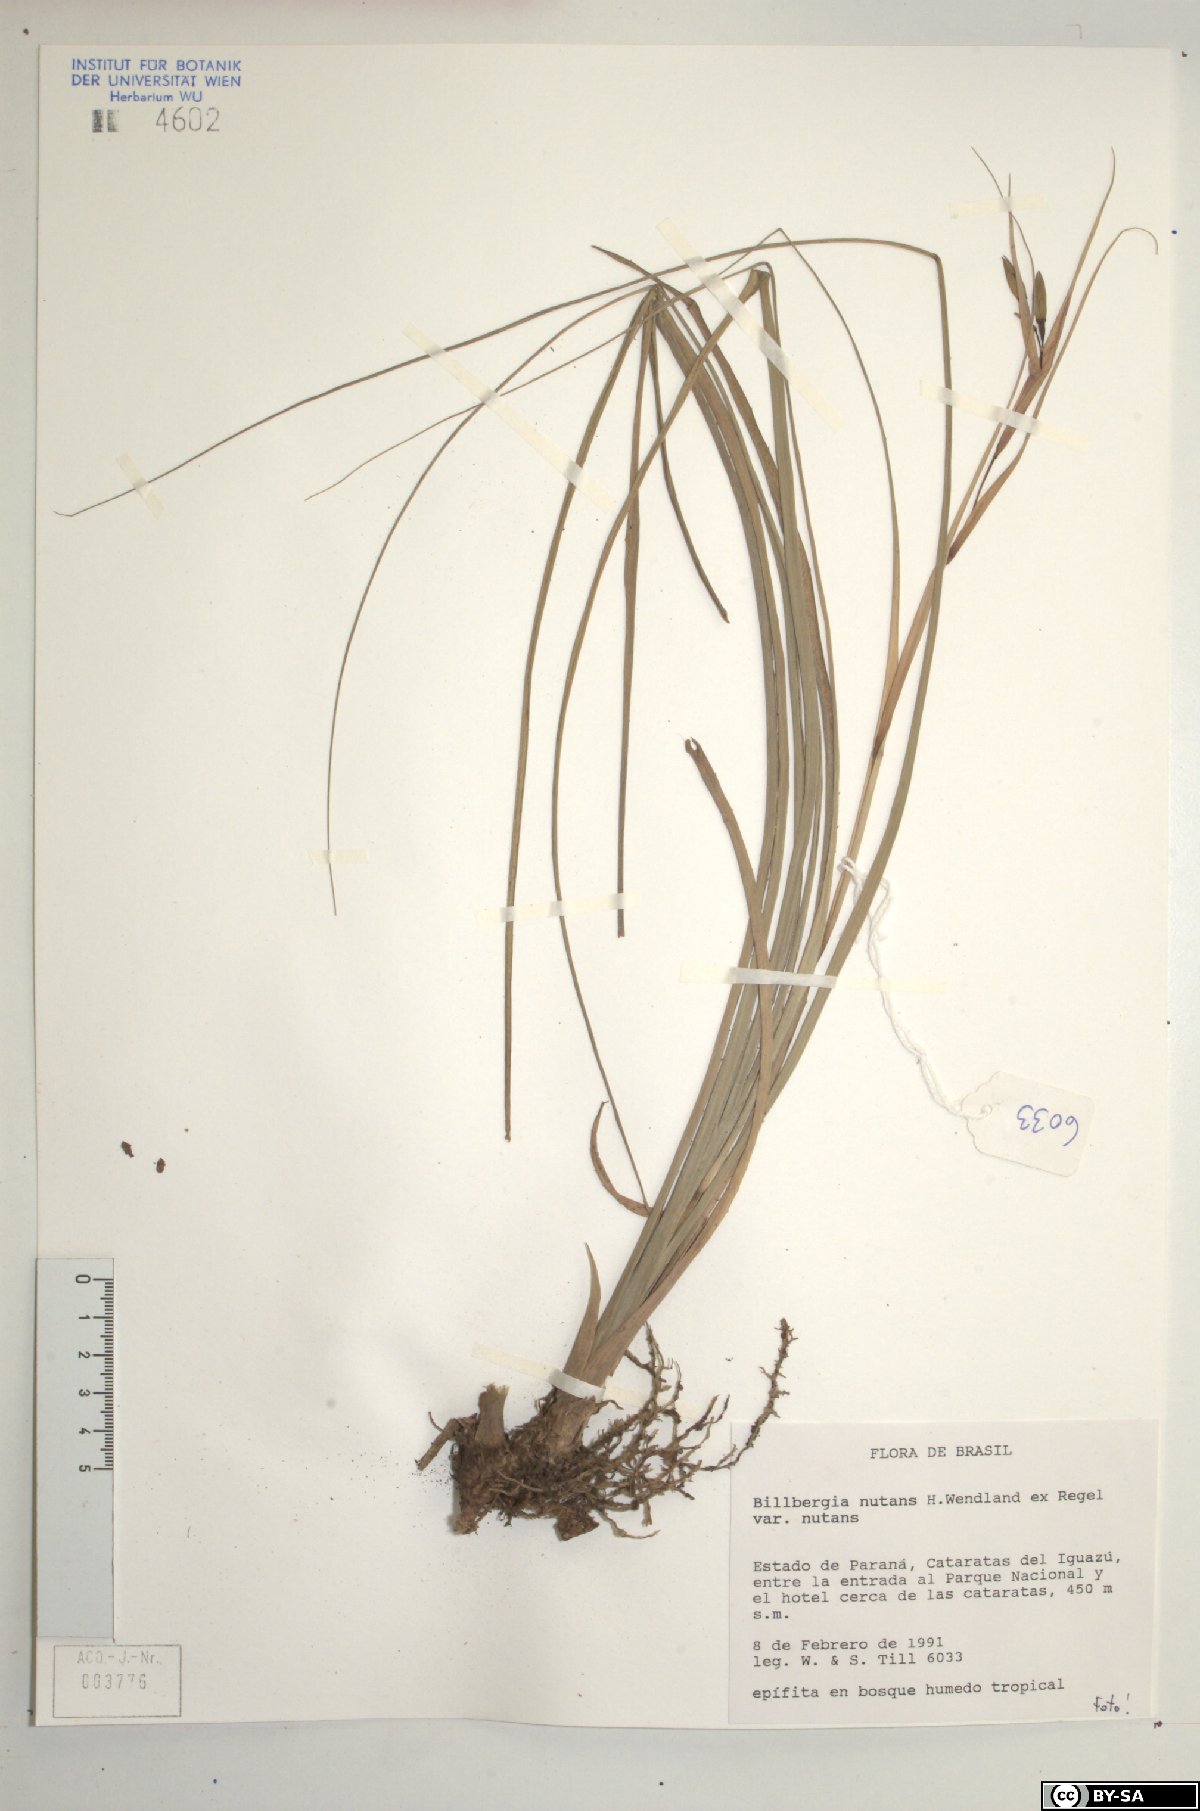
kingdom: Plantae
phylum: Tracheophyta
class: Liliopsida
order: Poales
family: Bromeliaceae
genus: Billbergia
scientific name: Billbergia nutans
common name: Friendship-plant
